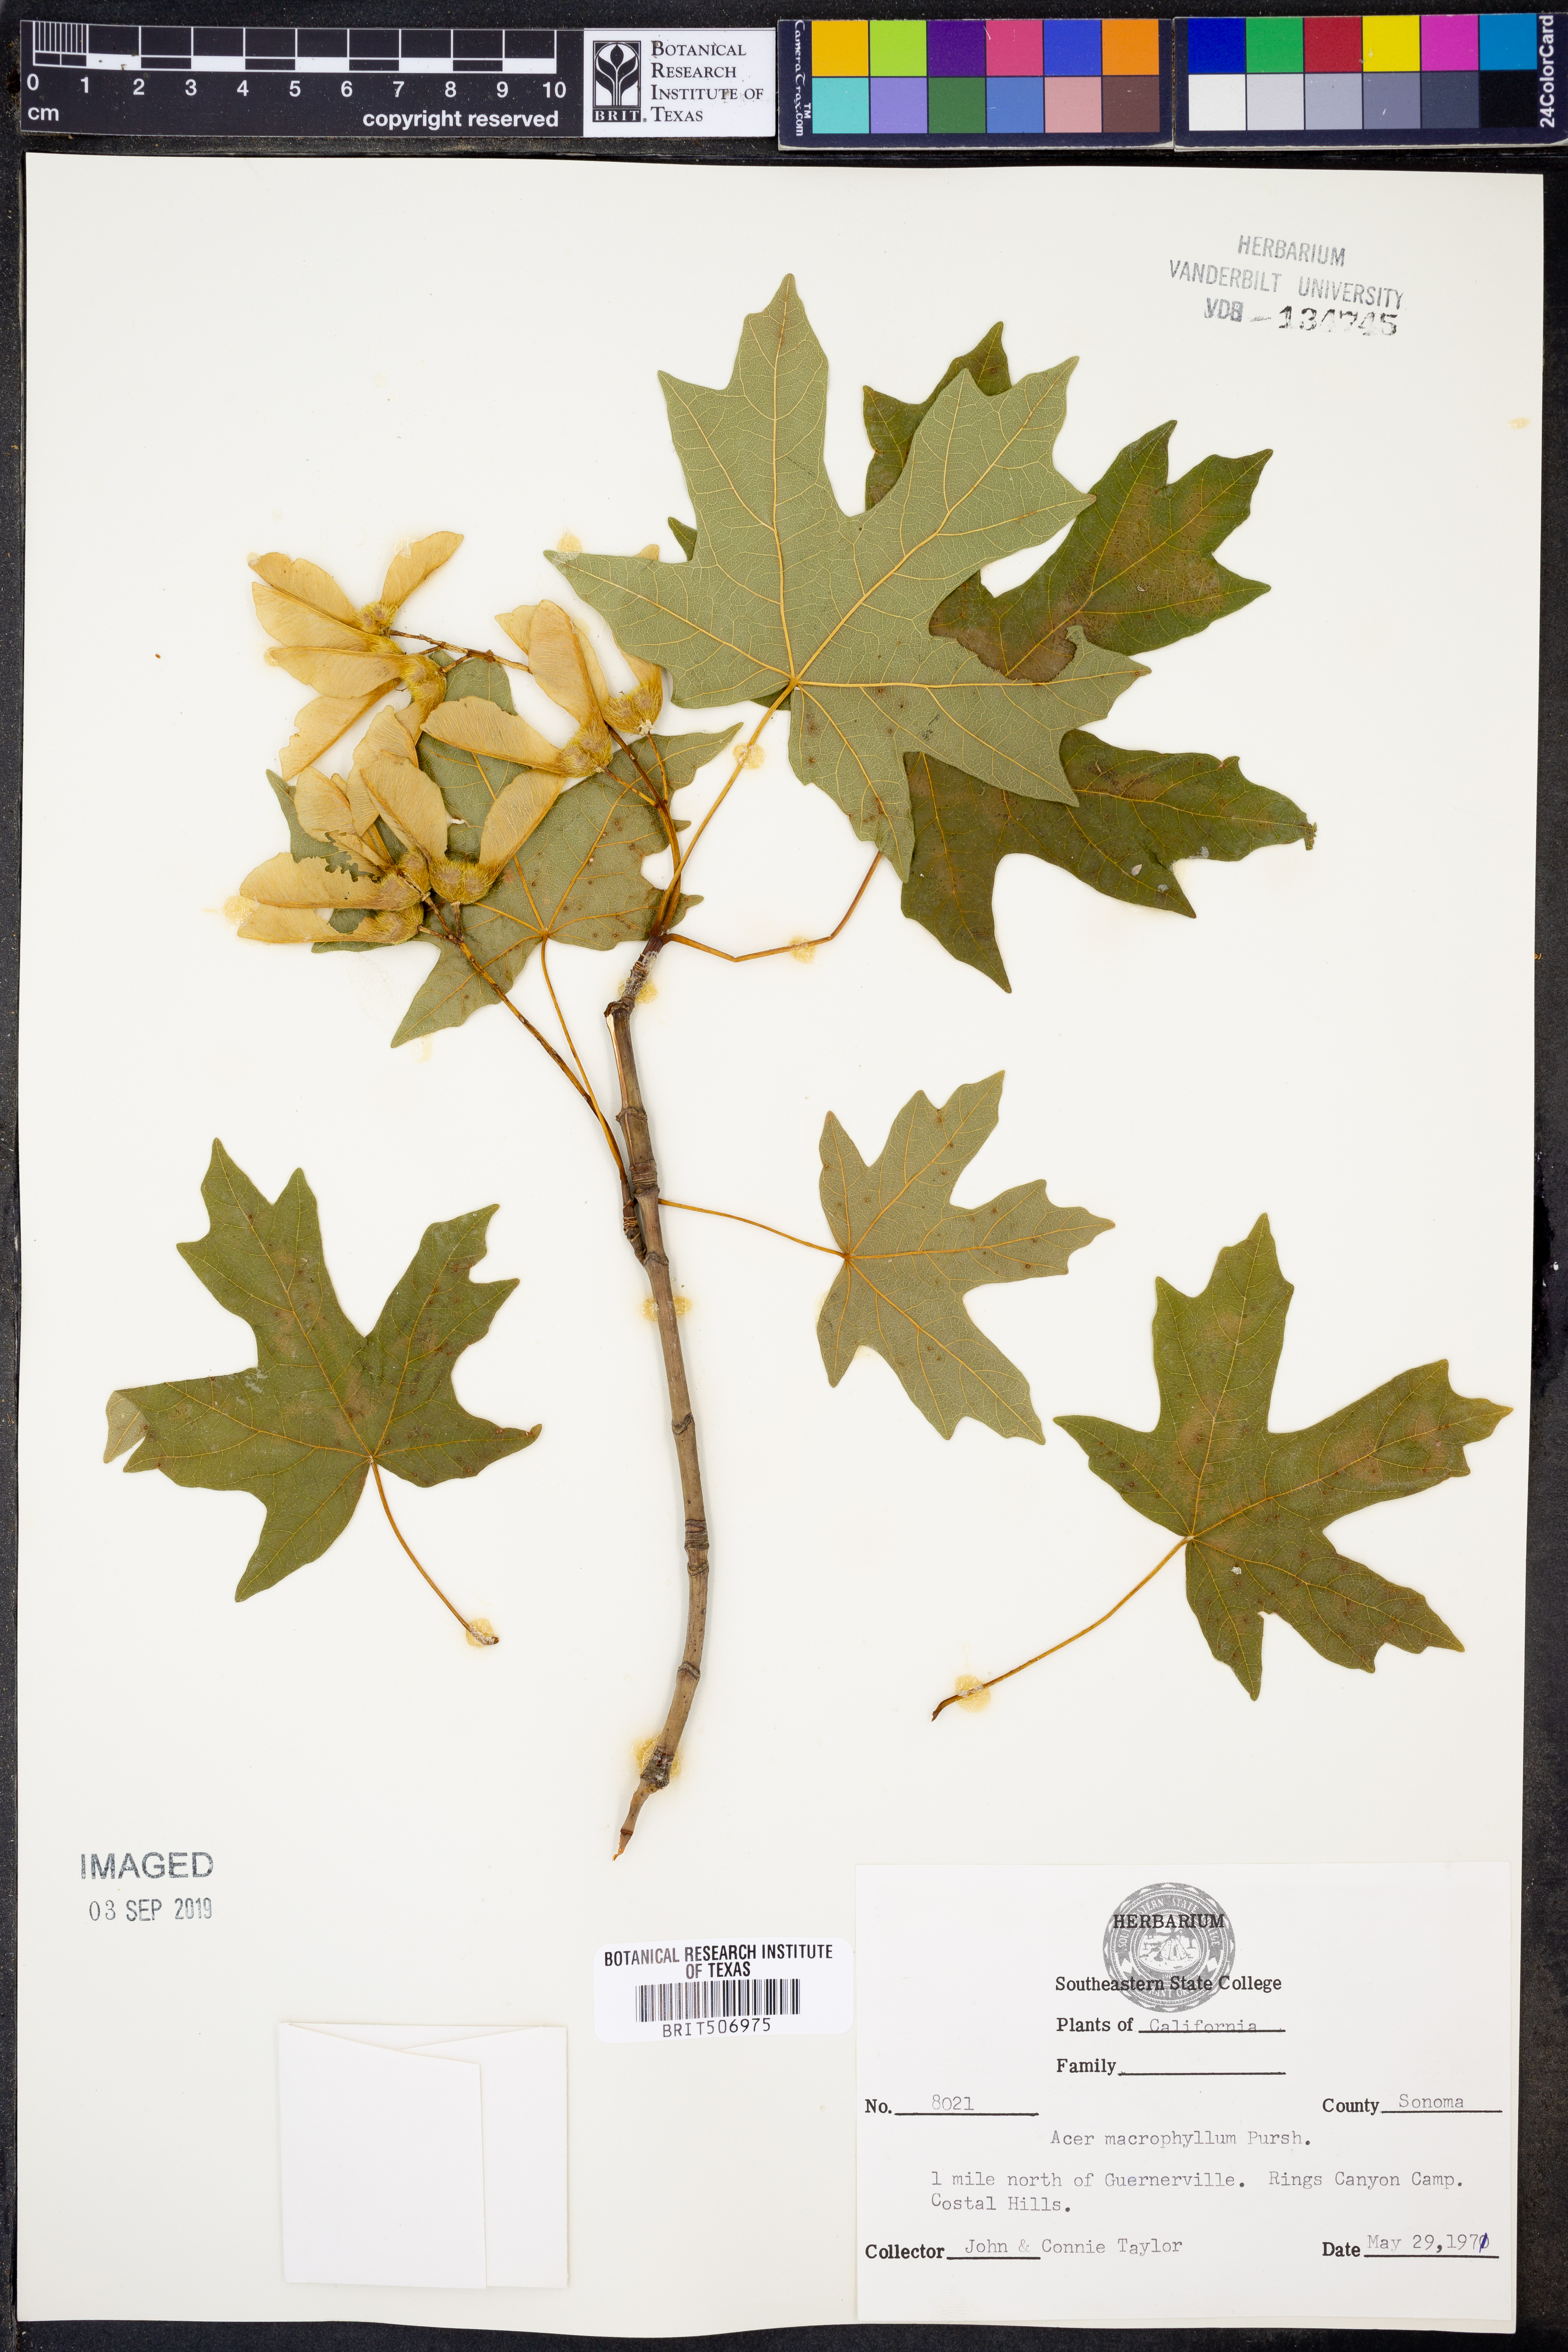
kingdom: Plantae
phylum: Tracheophyta
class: Magnoliopsida
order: Sapindales
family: Sapindaceae
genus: Acer
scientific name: Acer macrophyllum
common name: Oregon maple
